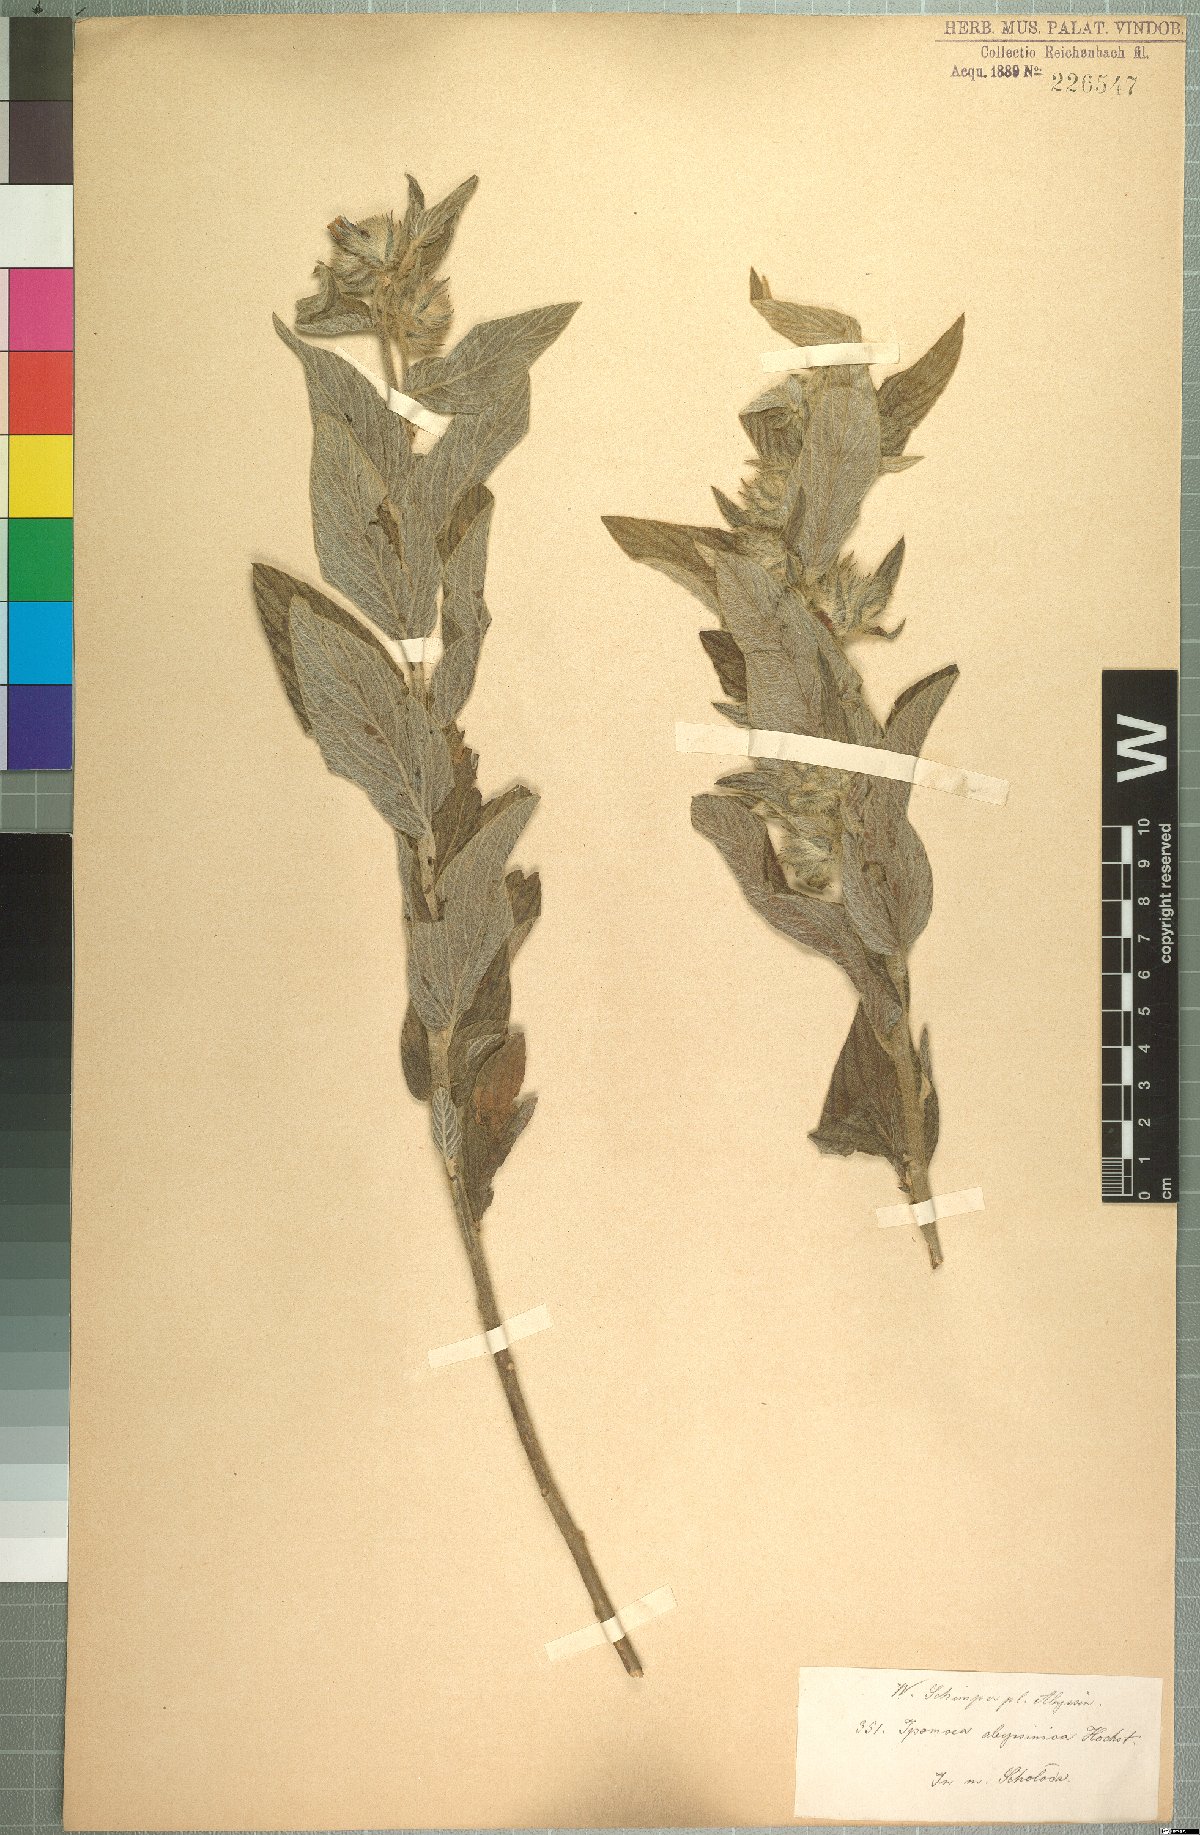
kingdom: Plantae
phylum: Tracheophyta
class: Magnoliopsida
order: Solanales
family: Convolvulaceae
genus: Ipomoea
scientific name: Ipomoea abyssinica
